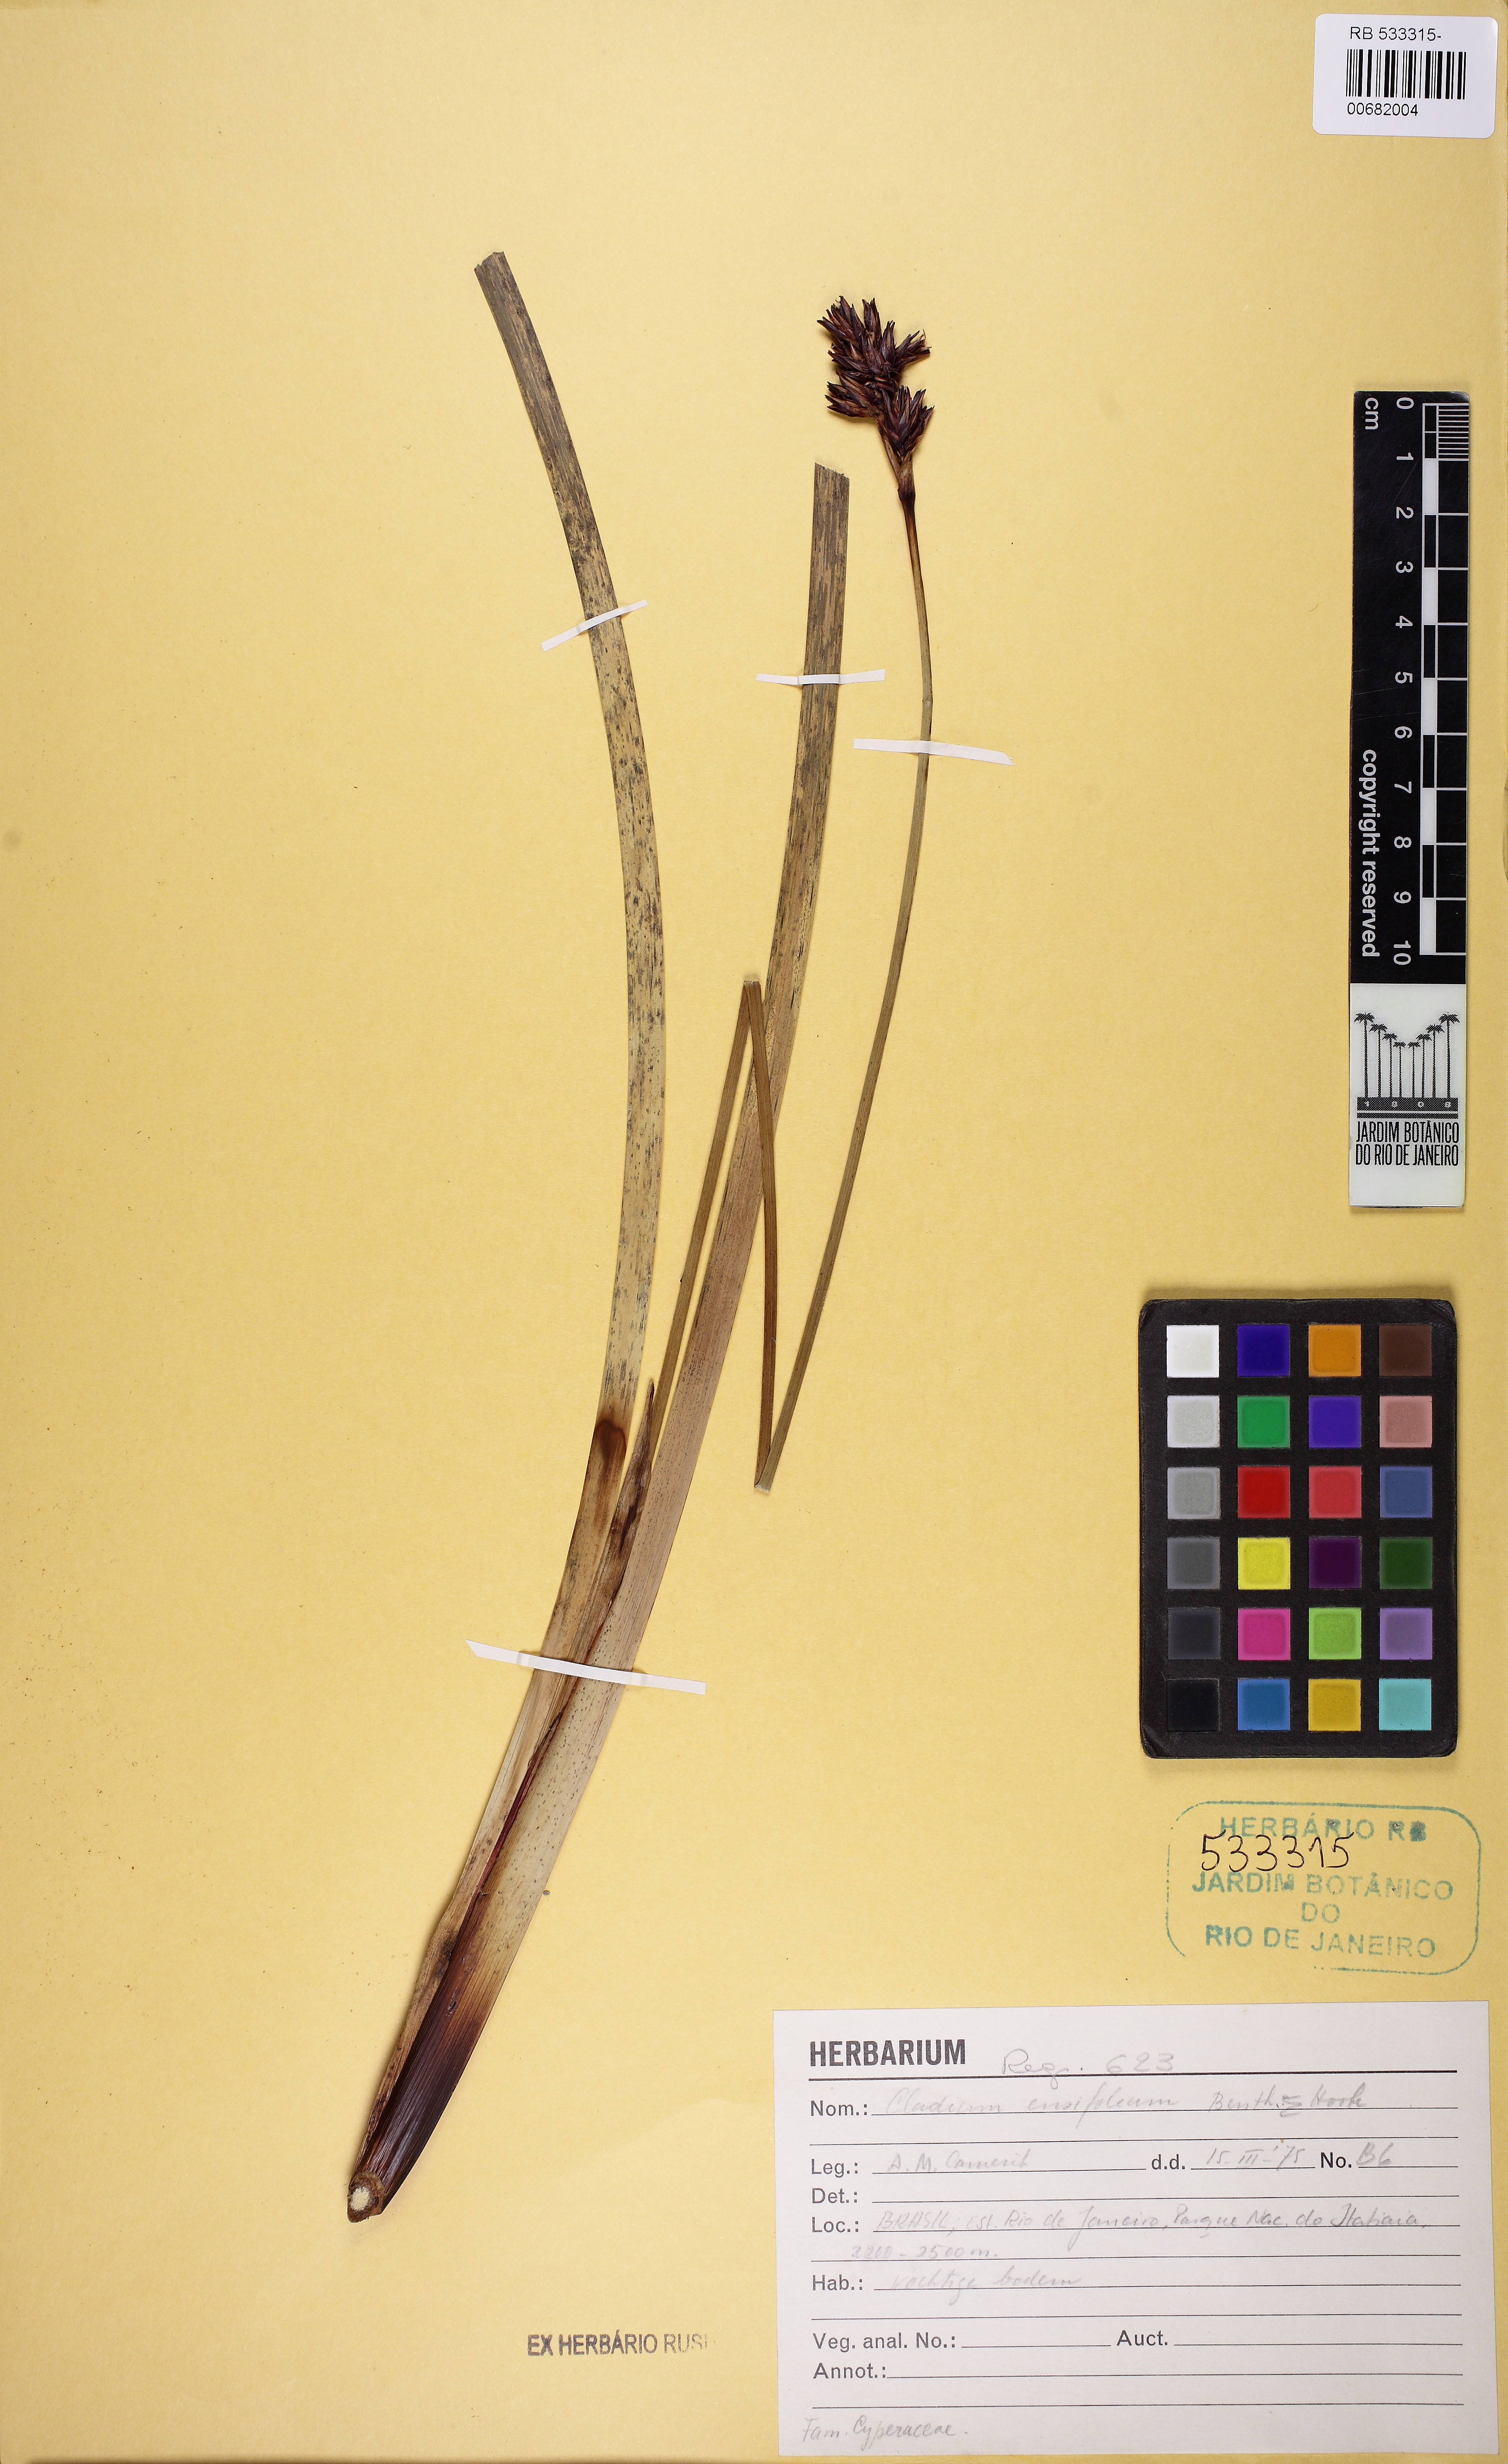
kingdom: Plantae
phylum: Tracheophyta
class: Liliopsida
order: Poales
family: Cyperaceae
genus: Machaerina
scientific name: Machaerina ensifolia
